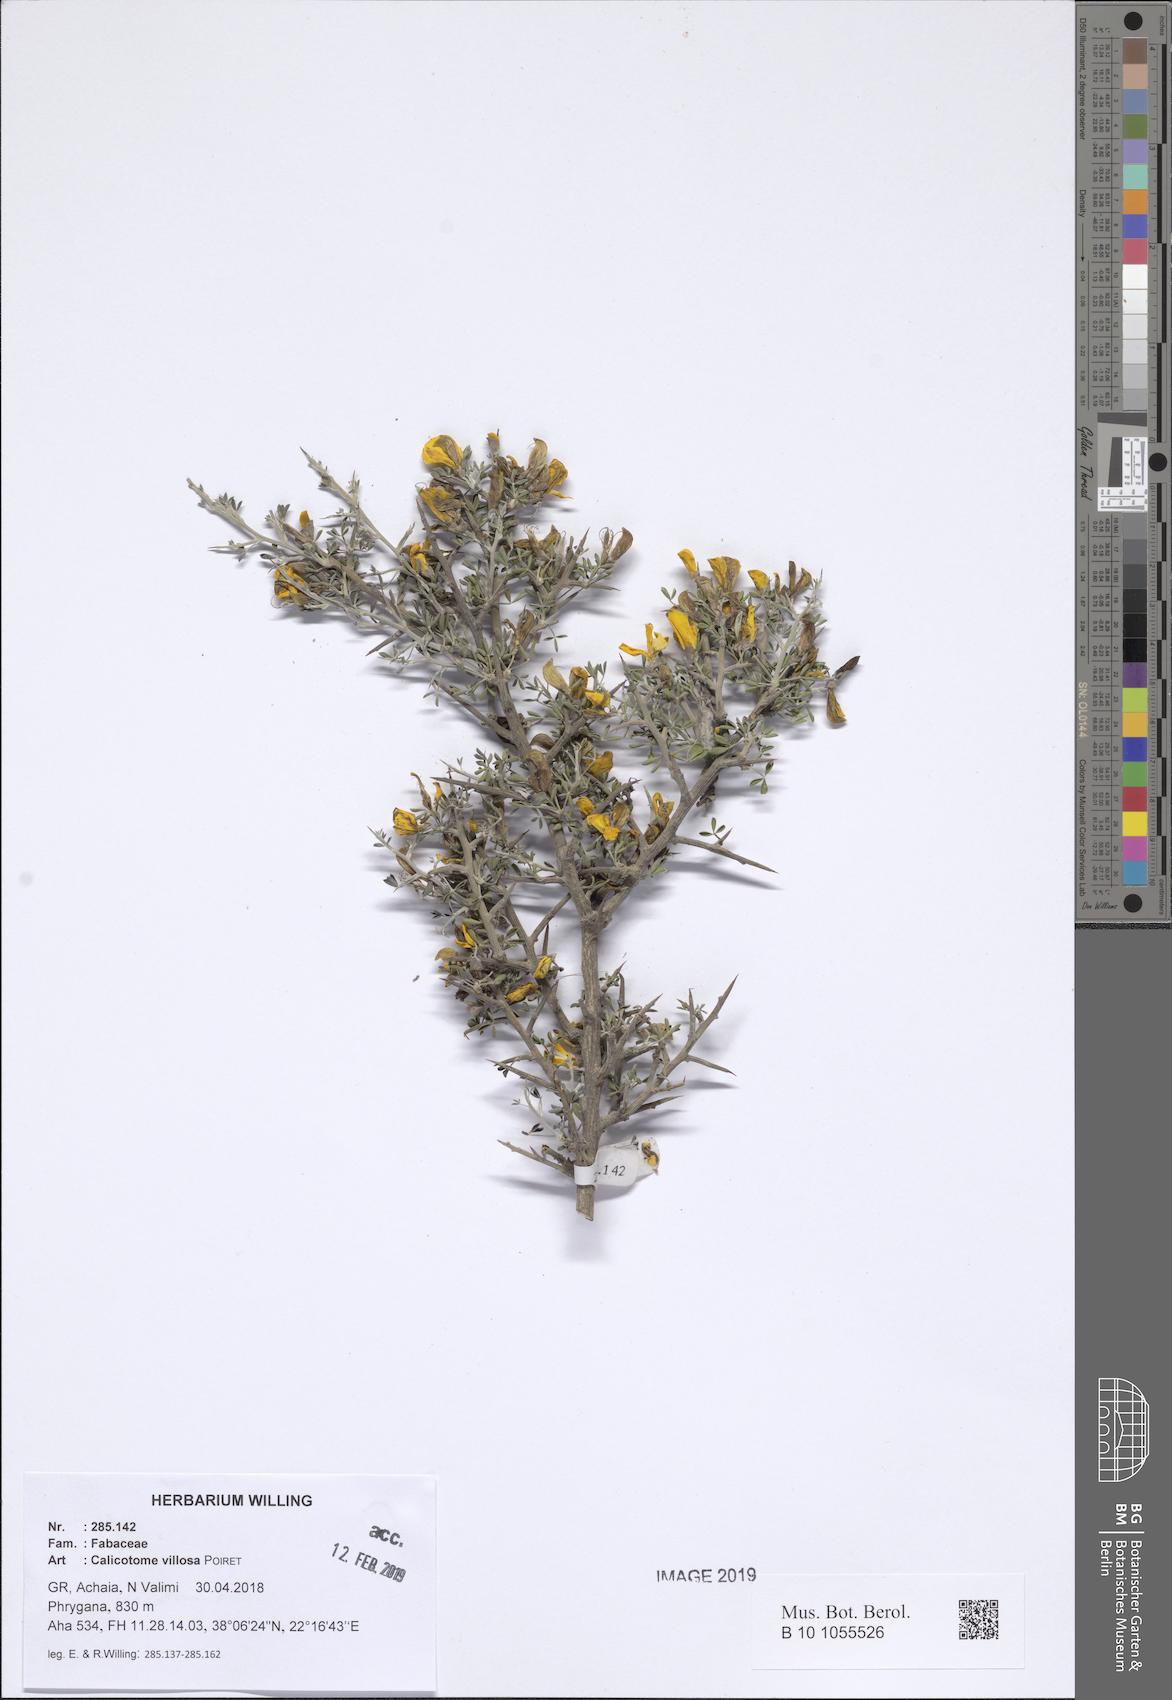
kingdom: Plantae
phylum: Tracheophyta
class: Magnoliopsida
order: Fabales
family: Fabaceae
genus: Calicotome
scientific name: Calicotome villosa
